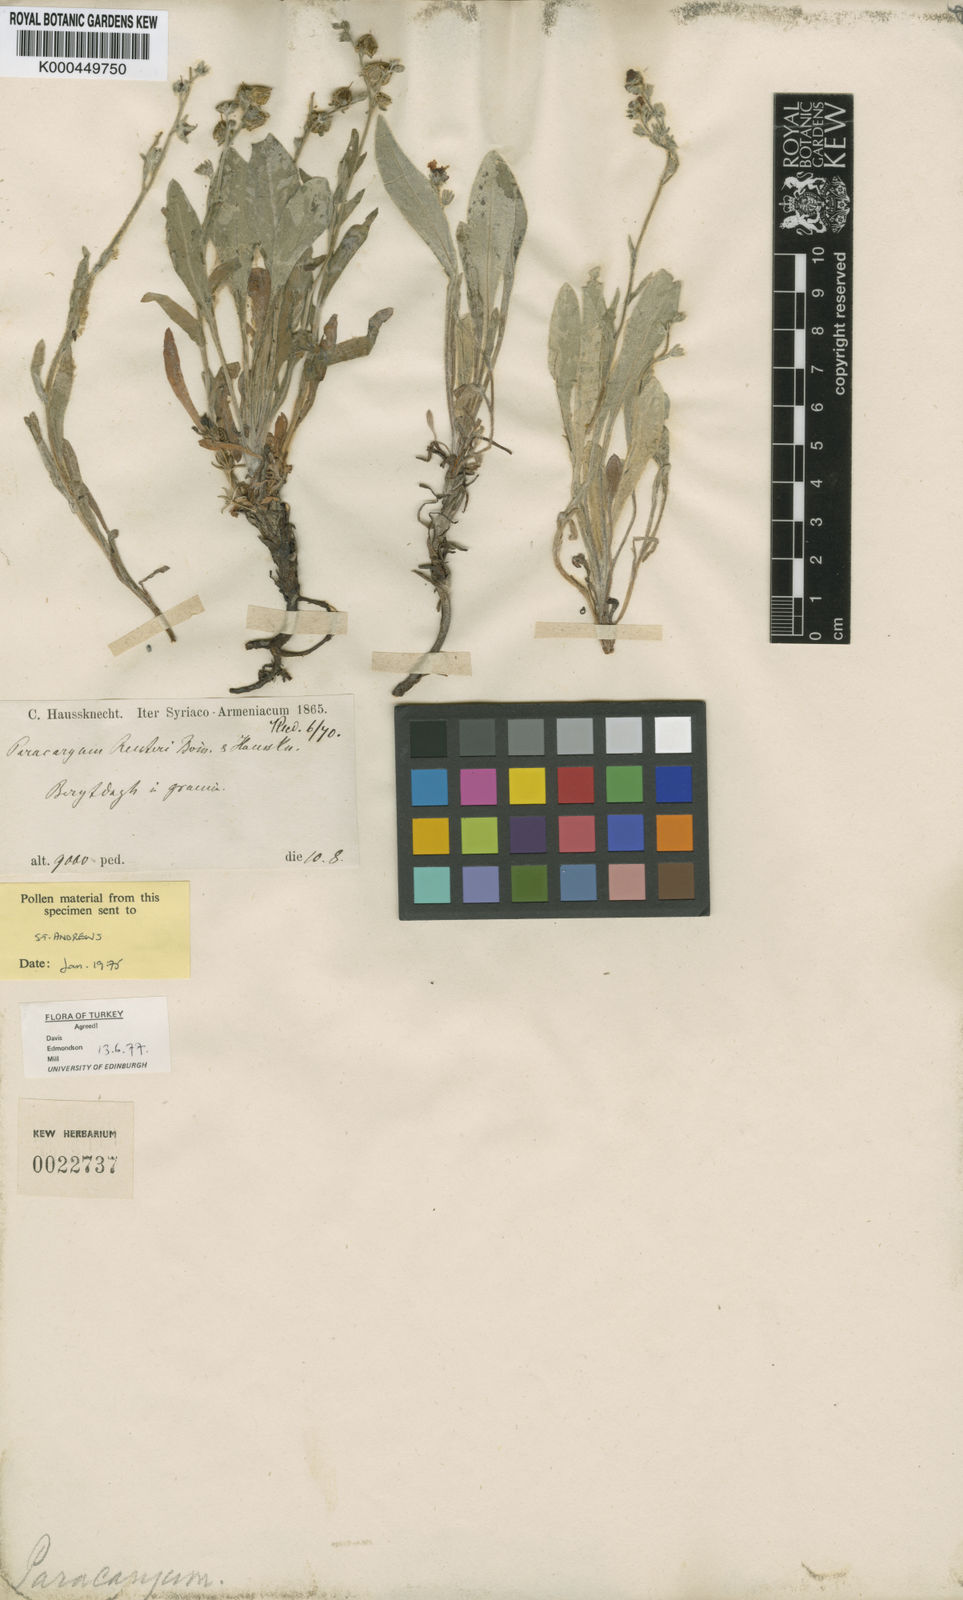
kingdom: Plantae
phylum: Tracheophyta
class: Magnoliopsida
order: Boraginales
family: Boraginaceae
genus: Paracaryum
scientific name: Paracaryum reuteri
